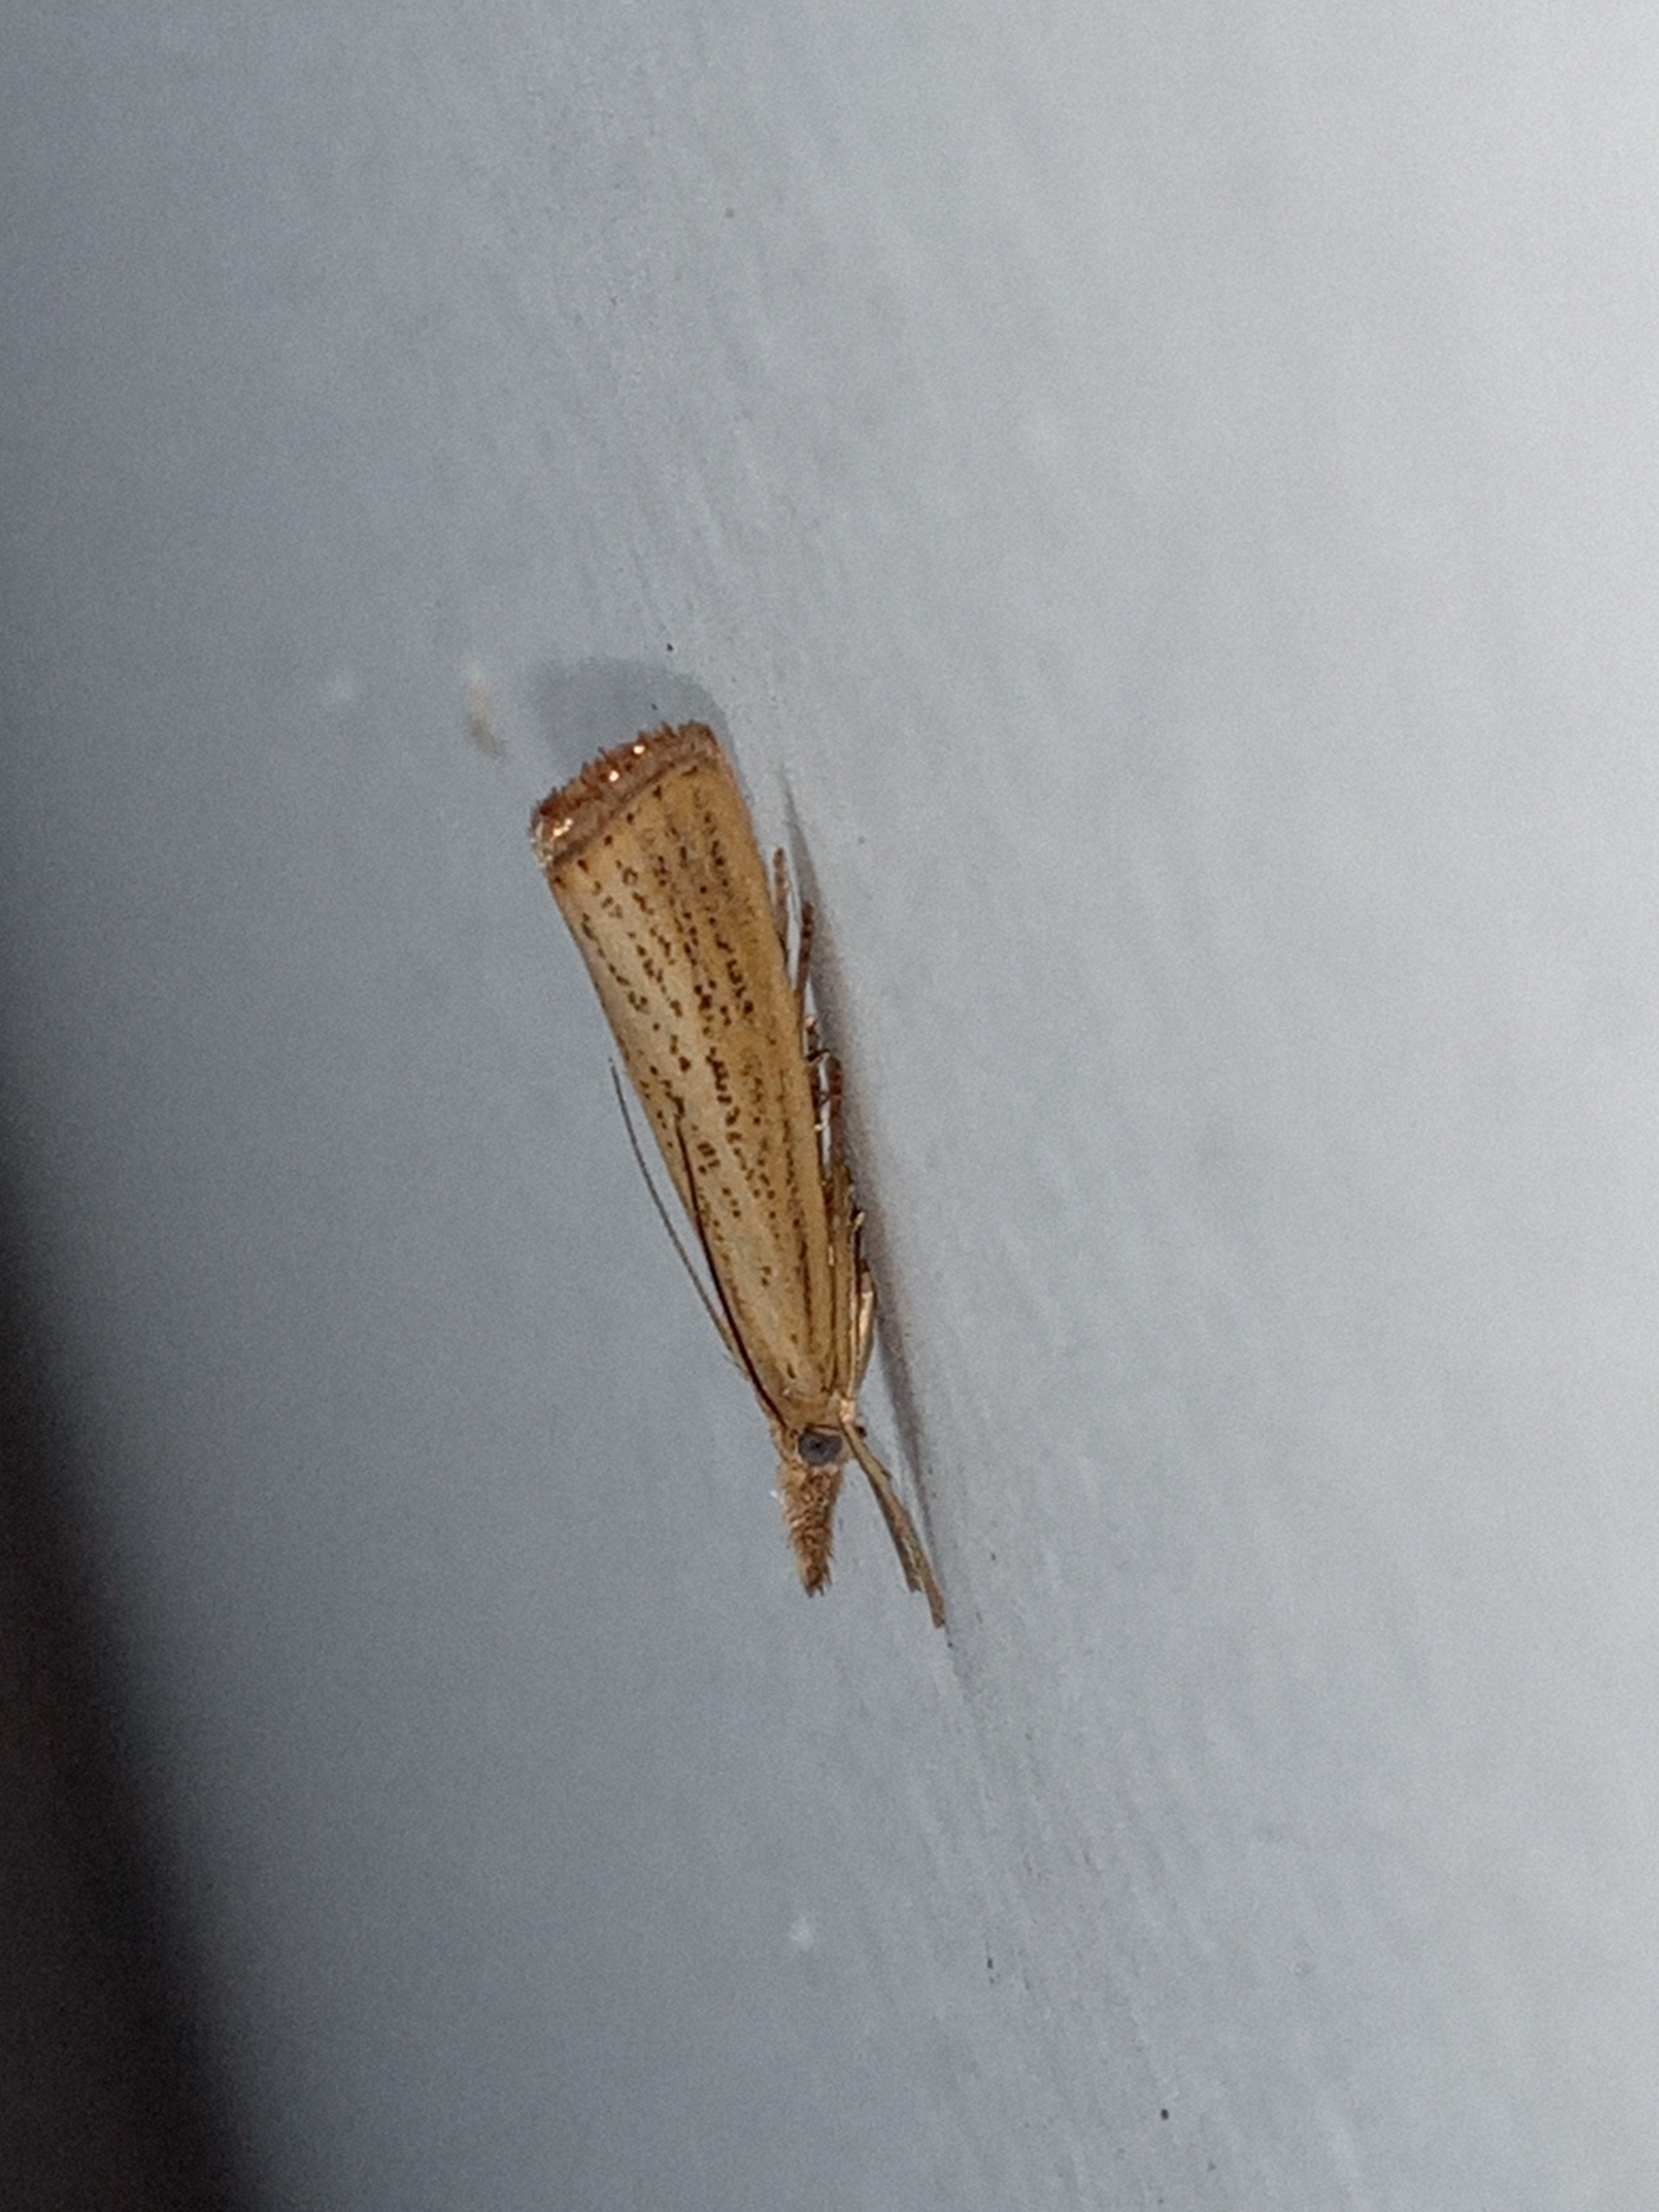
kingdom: Animalia
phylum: Arthropoda
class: Insecta
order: Lepidoptera
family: Crambidae
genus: Agriphila
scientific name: Agriphila straminella
